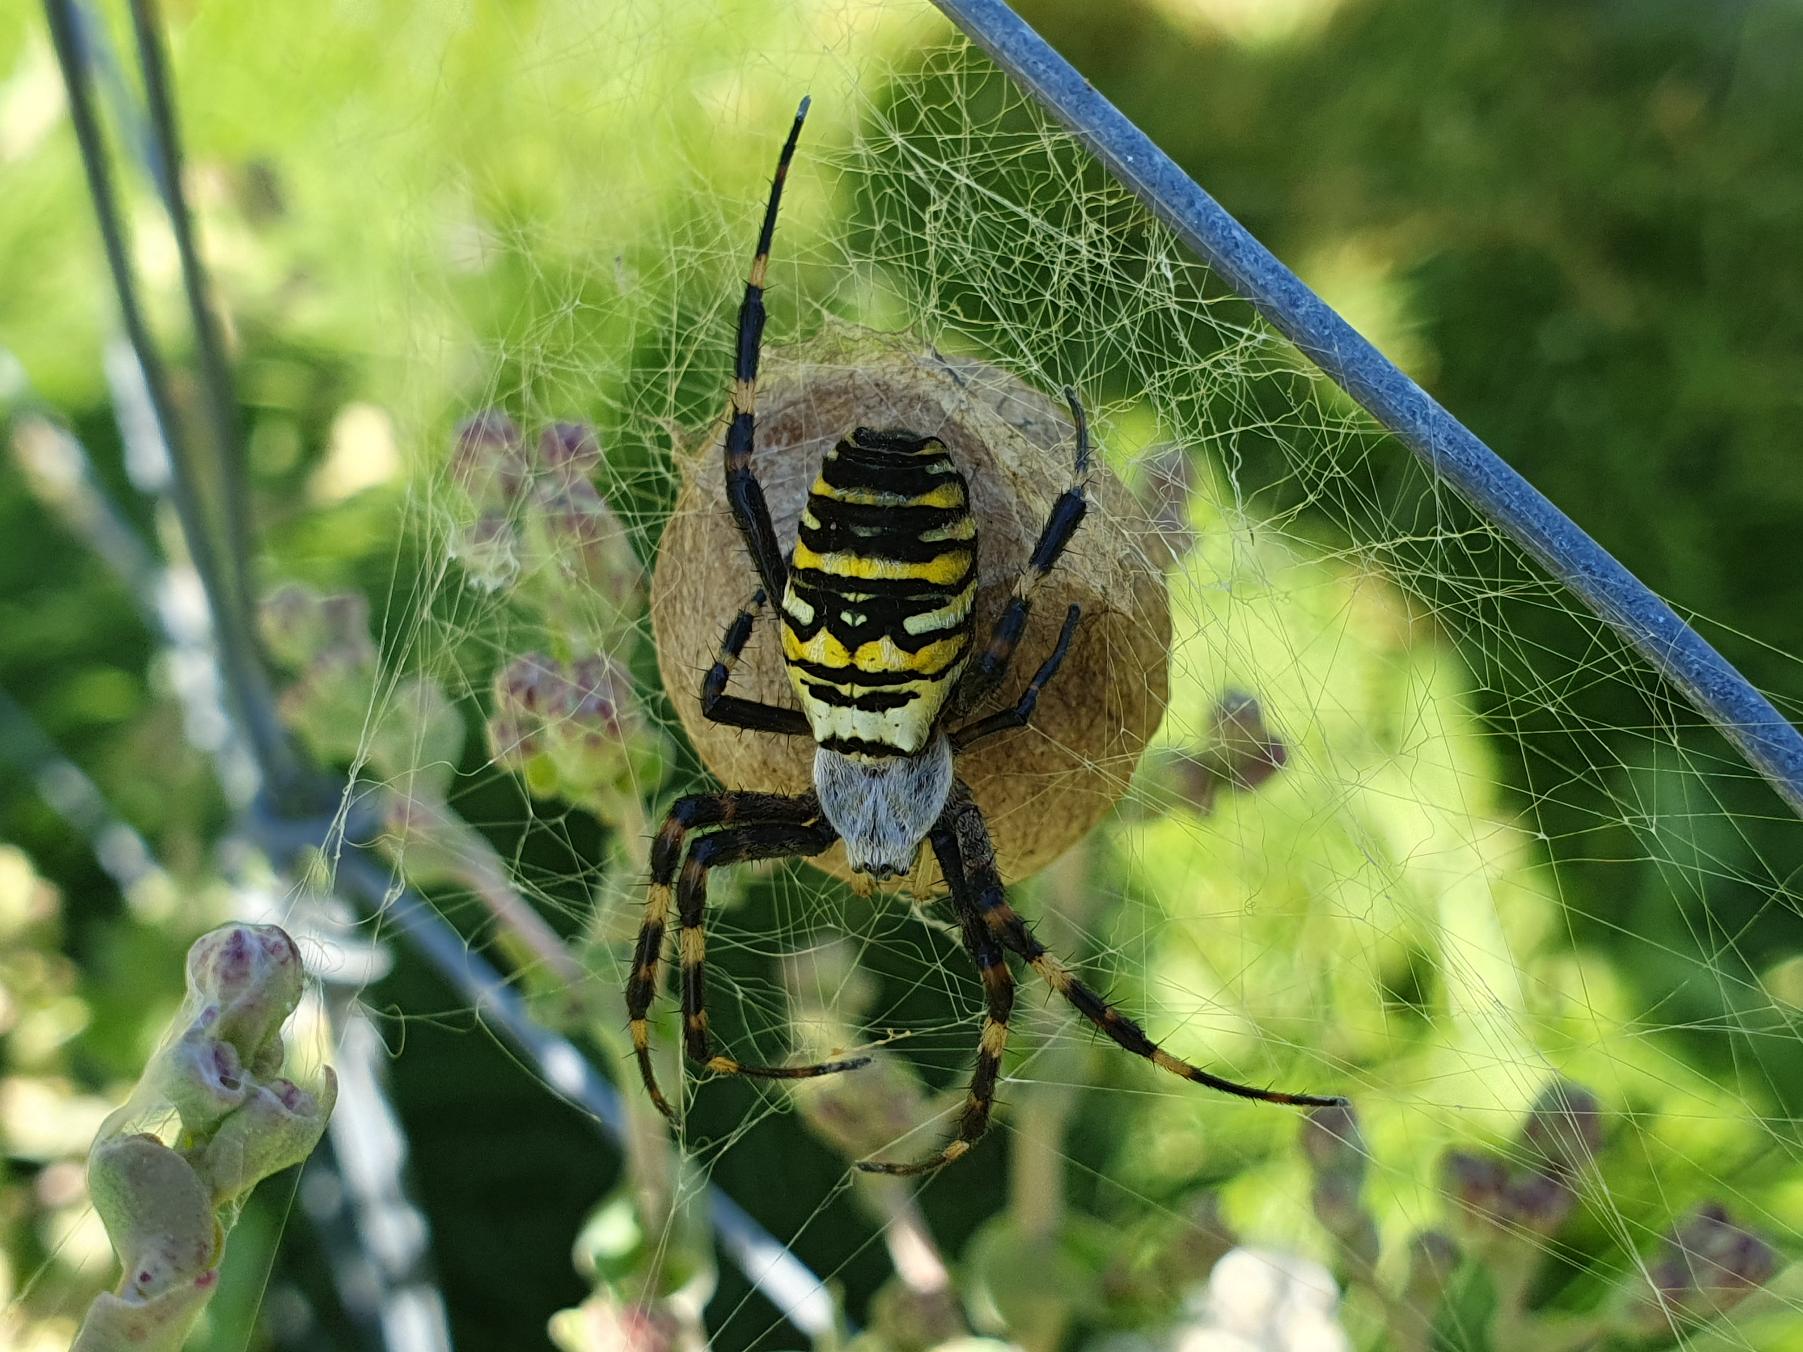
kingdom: Animalia
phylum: Arthropoda
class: Arachnida
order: Araneae
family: Araneidae
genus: Argiope
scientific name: Argiope bruennichi
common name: Hvepseedderkop
